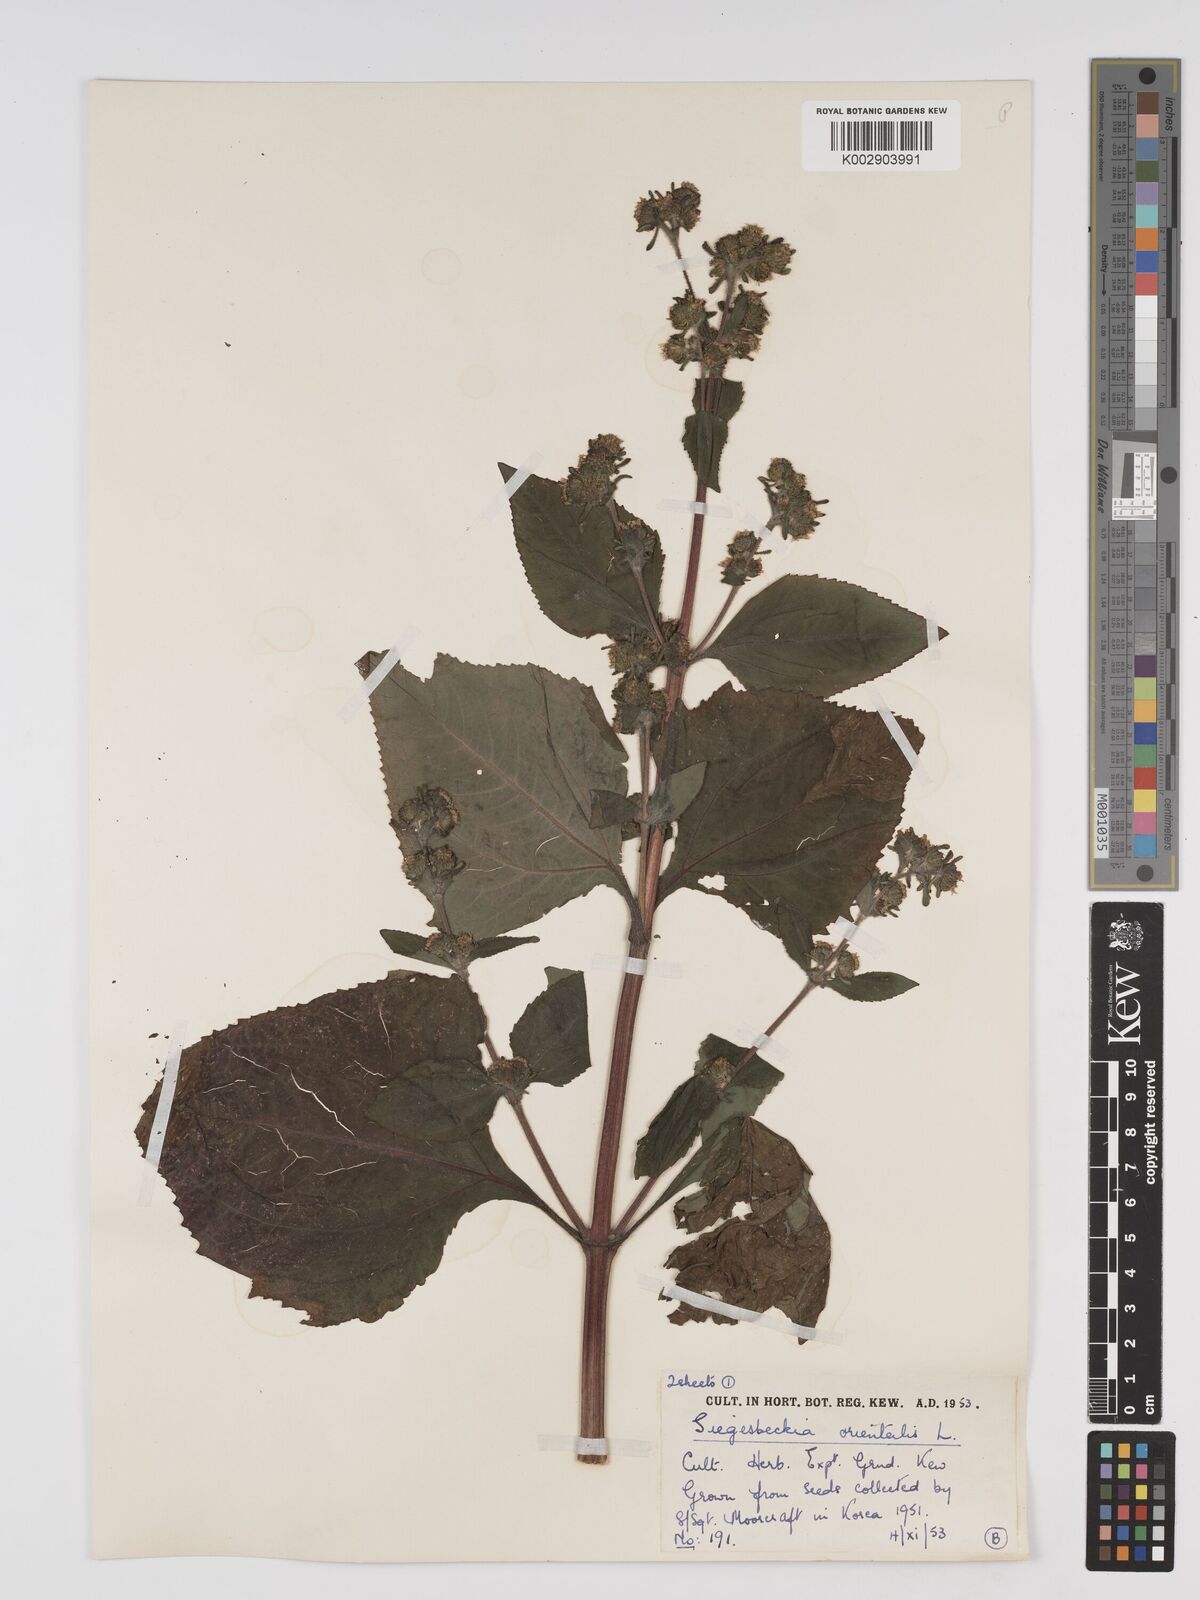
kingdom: Plantae
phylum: Tracheophyta
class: Magnoliopsida
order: Asterales
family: Asteraceae
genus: Sigesbeckia
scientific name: Sigesbeckia orientalis
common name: Eastern st paul's-wort
